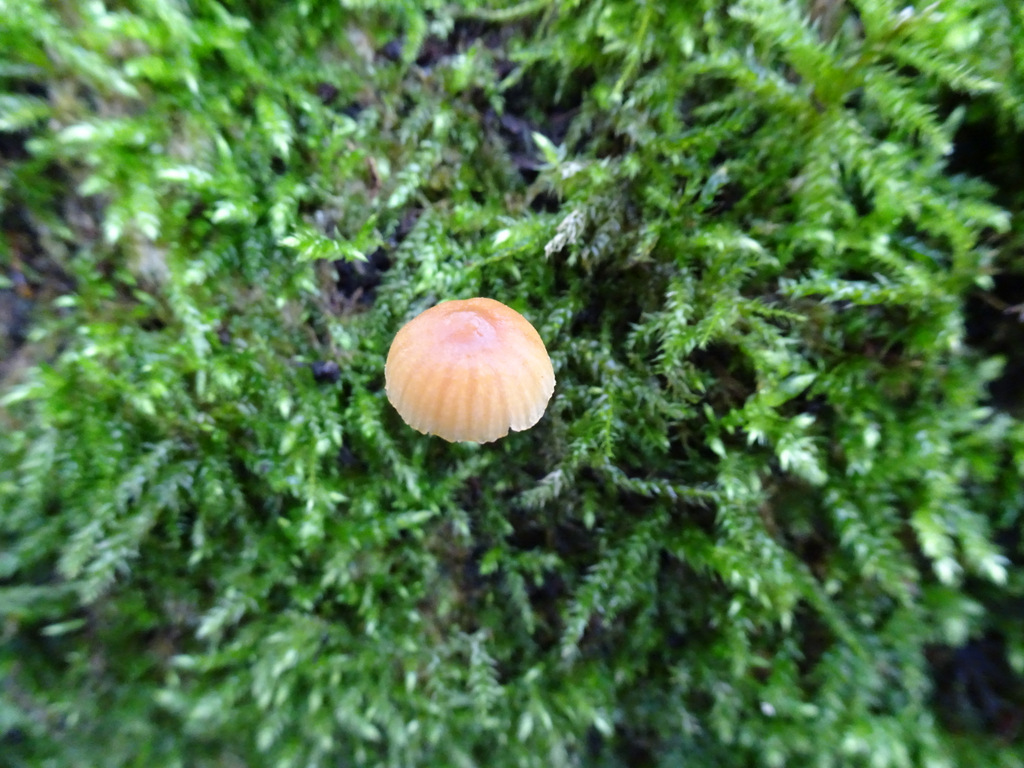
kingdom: Fungi
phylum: Basidiomycota
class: Agaricomycetes
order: Agaricales
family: Hymenogastraceae
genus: Galerina
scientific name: Galerina
